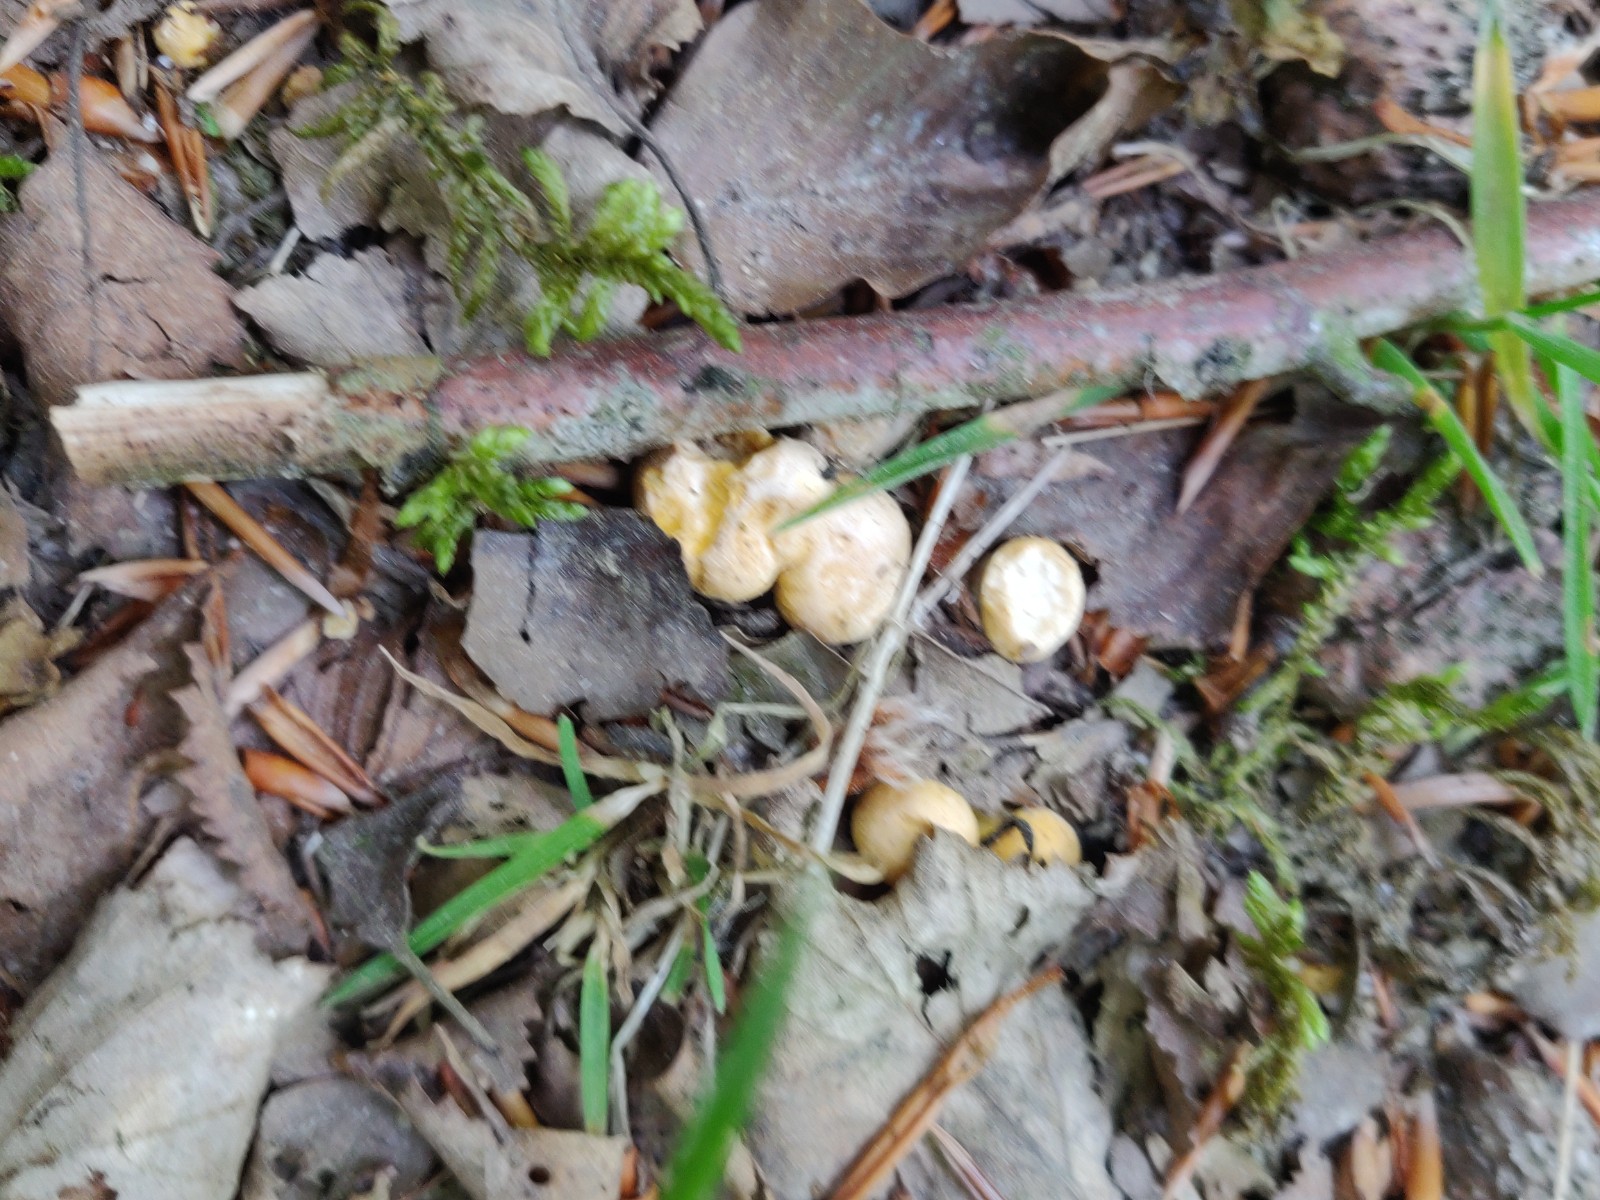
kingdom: Fungi
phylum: Basidiomycota
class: Agaricomycetes
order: Cantharellales
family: Hydnaceae
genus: Cantharellus
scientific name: Cantharellus cibarius
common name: almindelig kantarel
